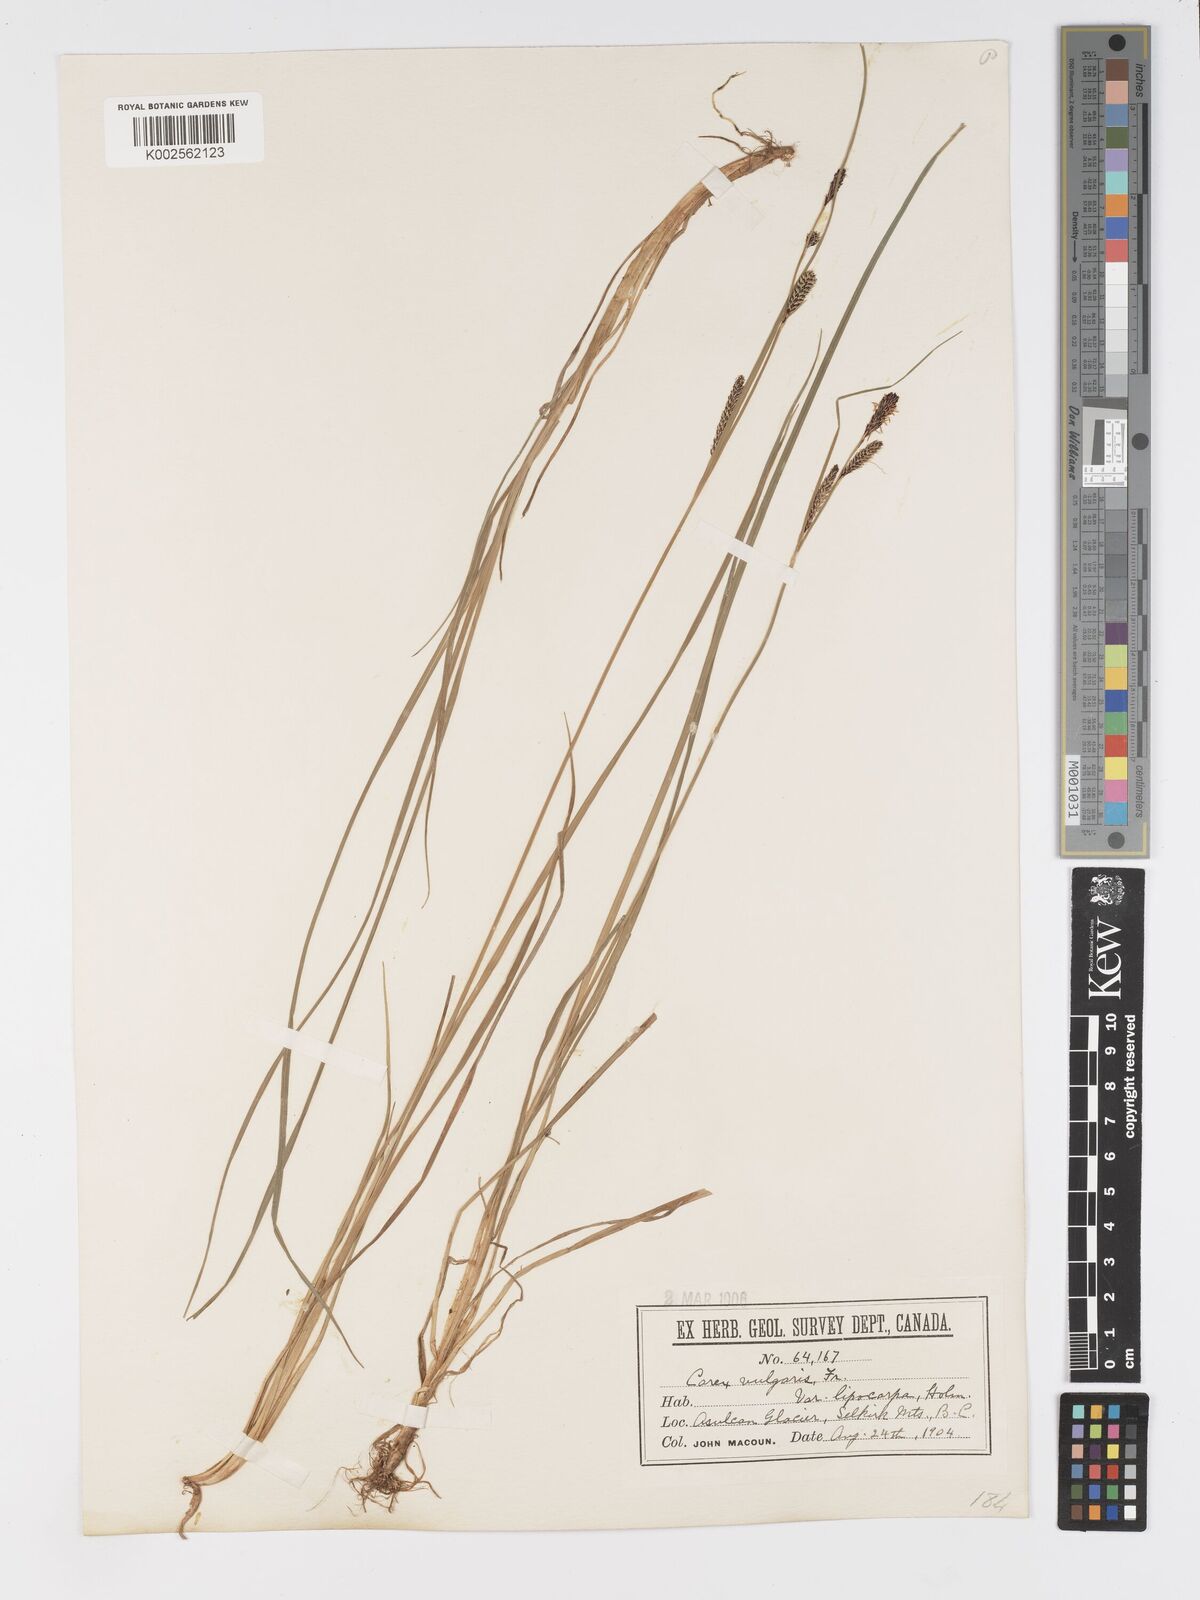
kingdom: Plantae
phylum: Tracheophyta
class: Liliopsida
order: Poales
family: Cyperaceae
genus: Carex
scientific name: Carex kelloggii
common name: Kellogg's sedge
